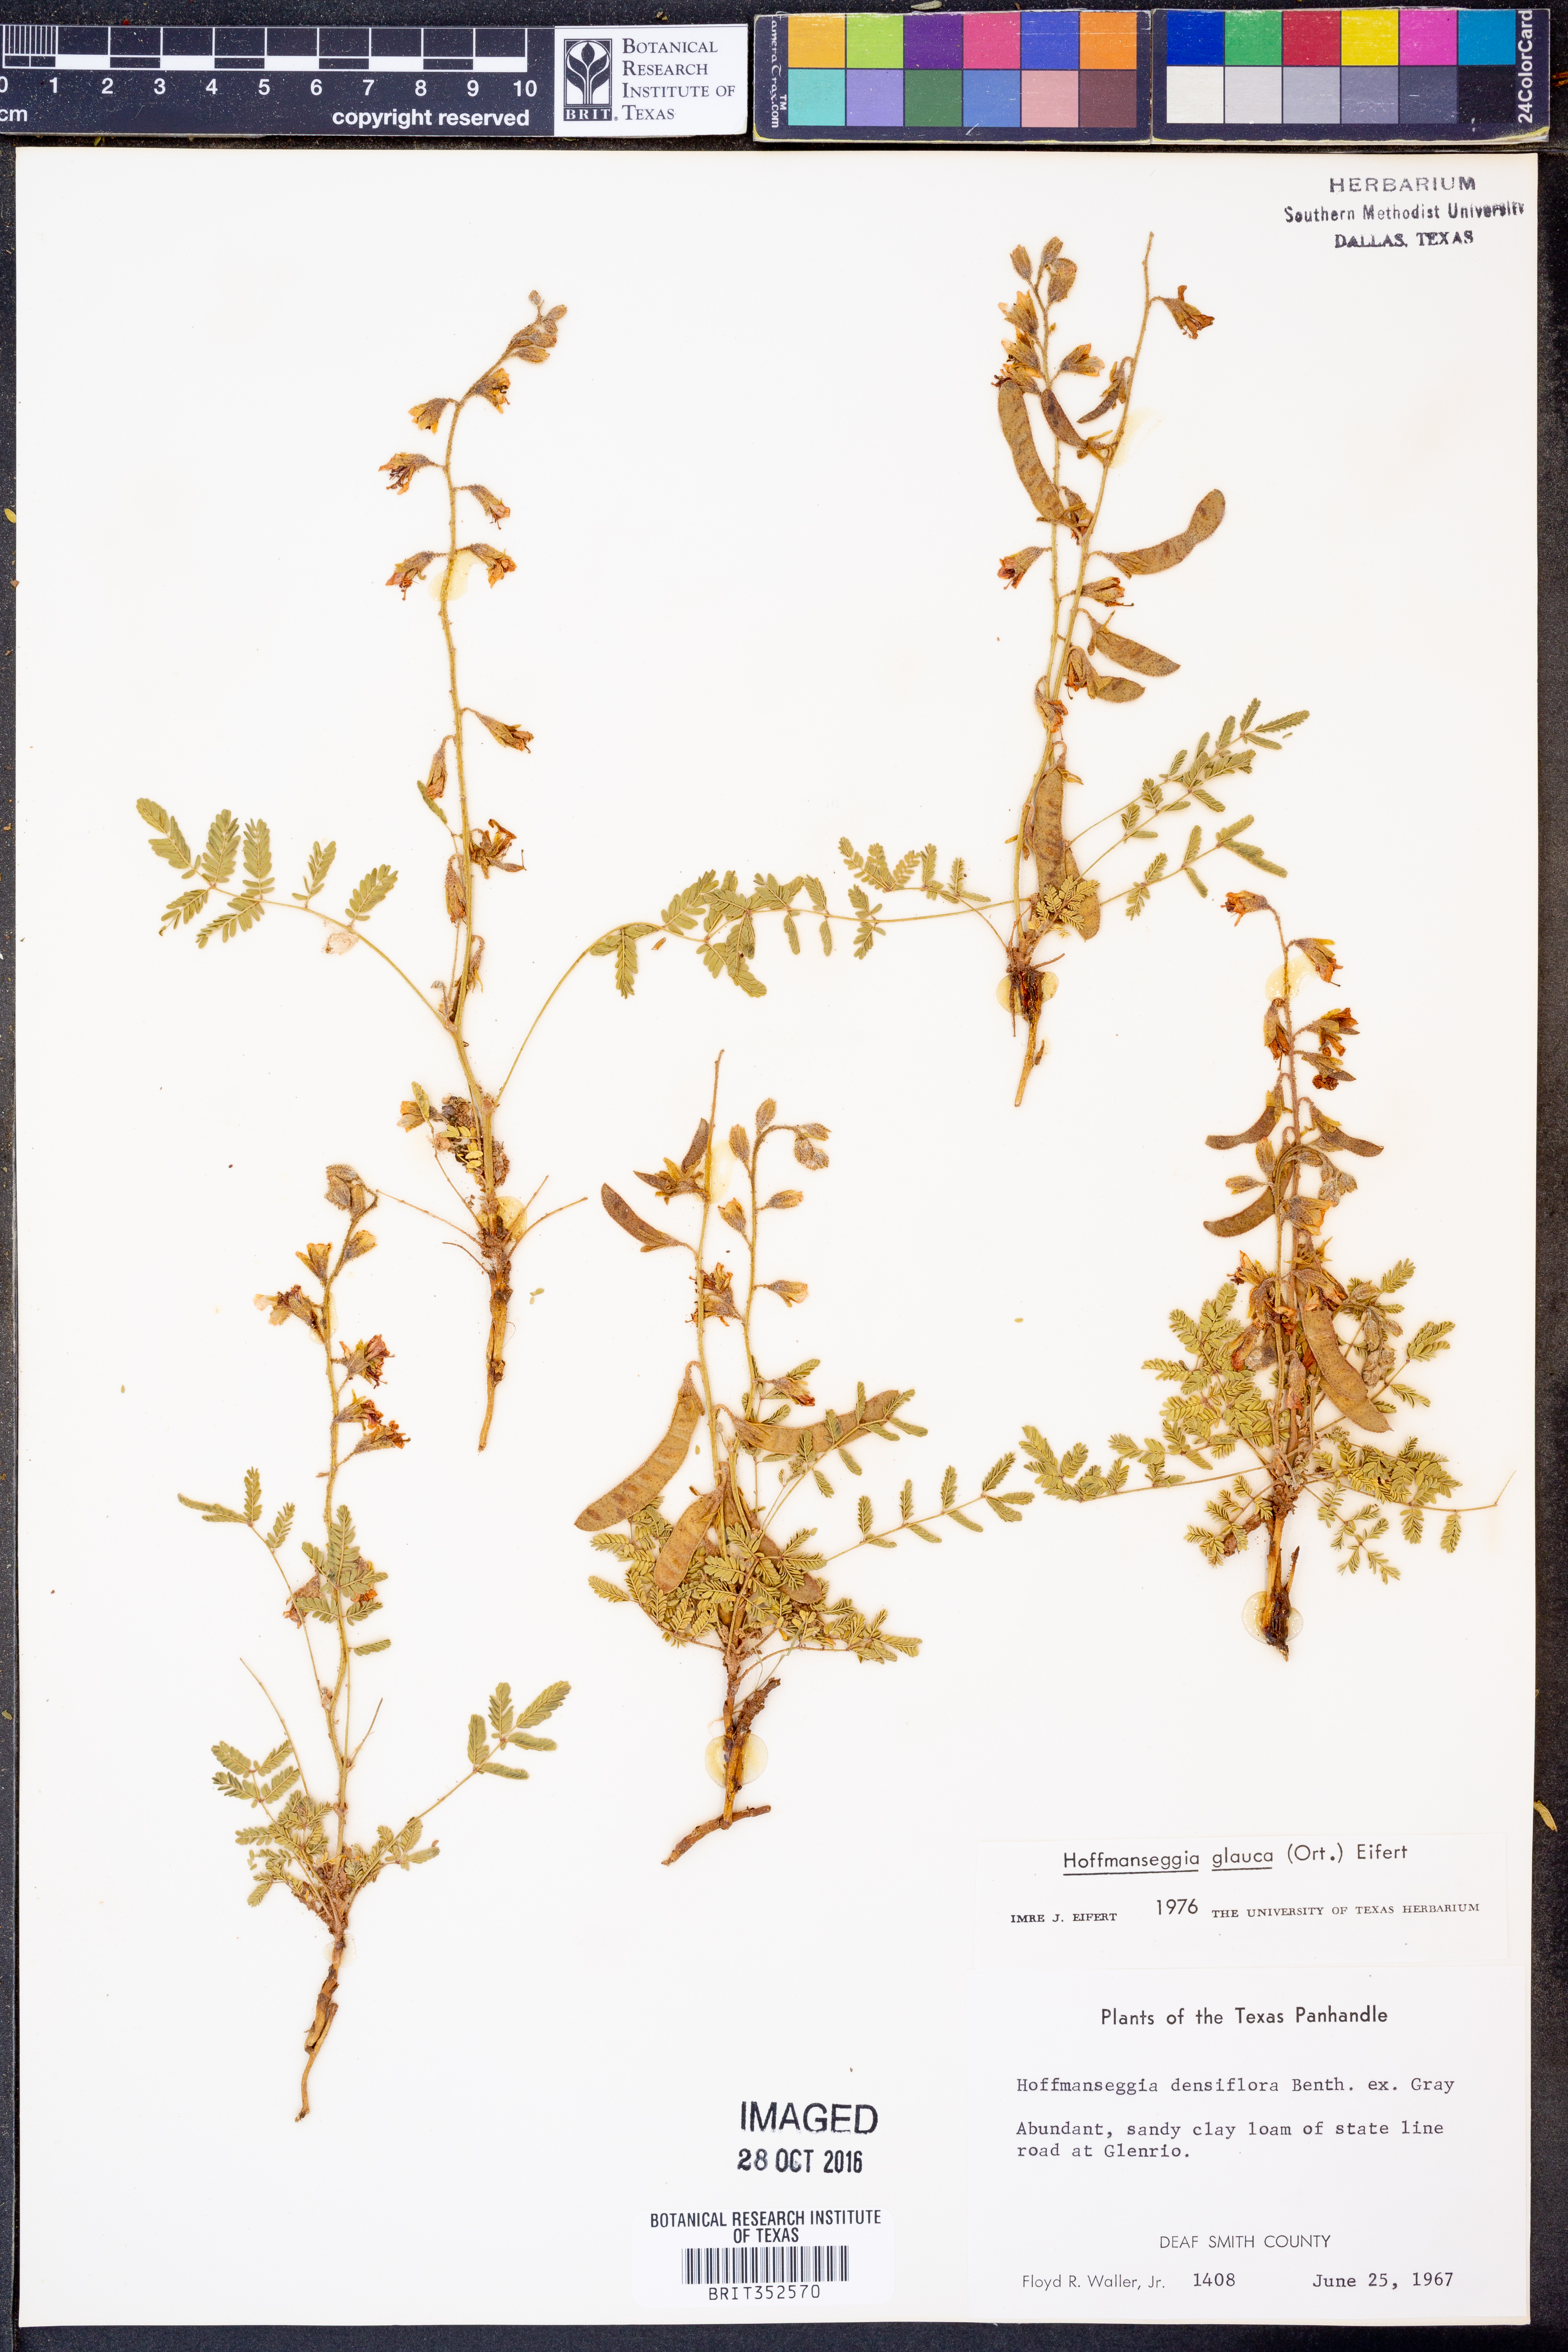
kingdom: Plantae
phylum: Tracheophyta
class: Magnoliopsida
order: Fabales
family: Fabaceae
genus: Hoffmannseggia
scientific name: Hoffmannseggia glauca
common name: Pignut
